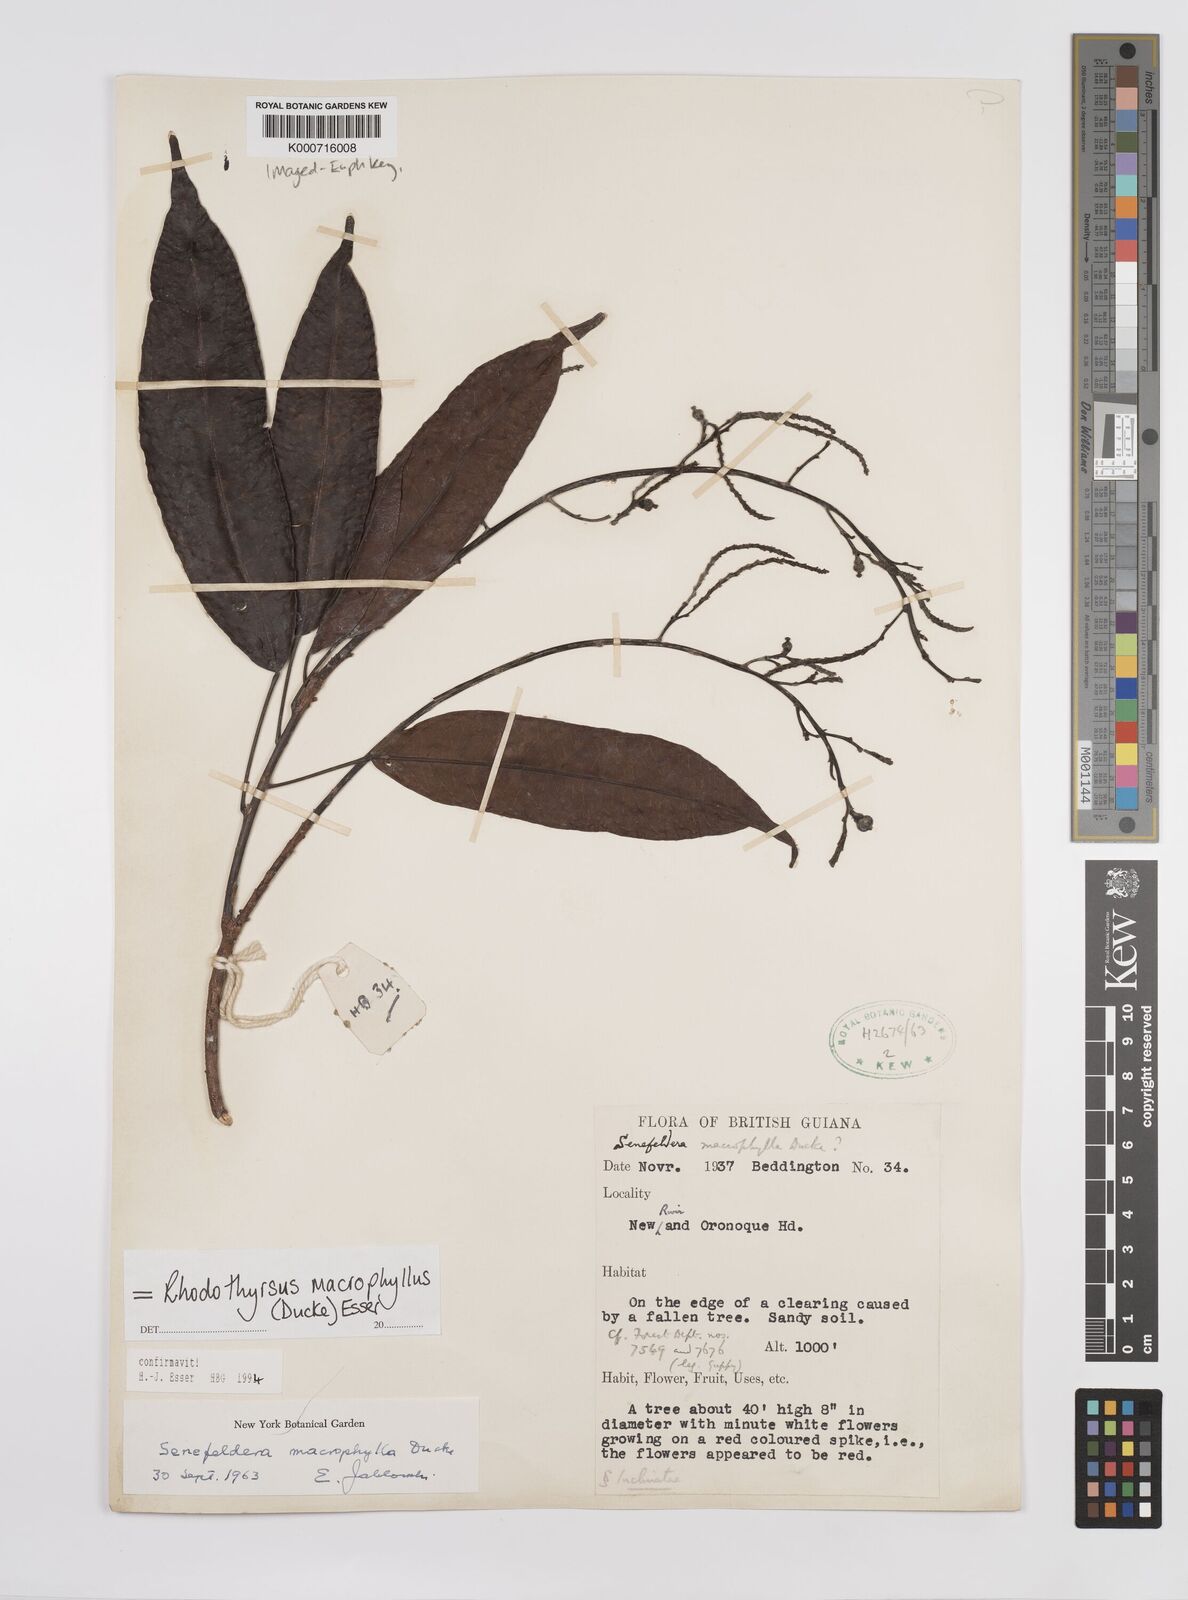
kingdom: Plantae
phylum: Tracheophyta
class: Magnoliopsida
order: Malpighiales
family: Euphorbiaceae
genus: Rhodothyrsus
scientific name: Rhodothyrsus macrophyllus
